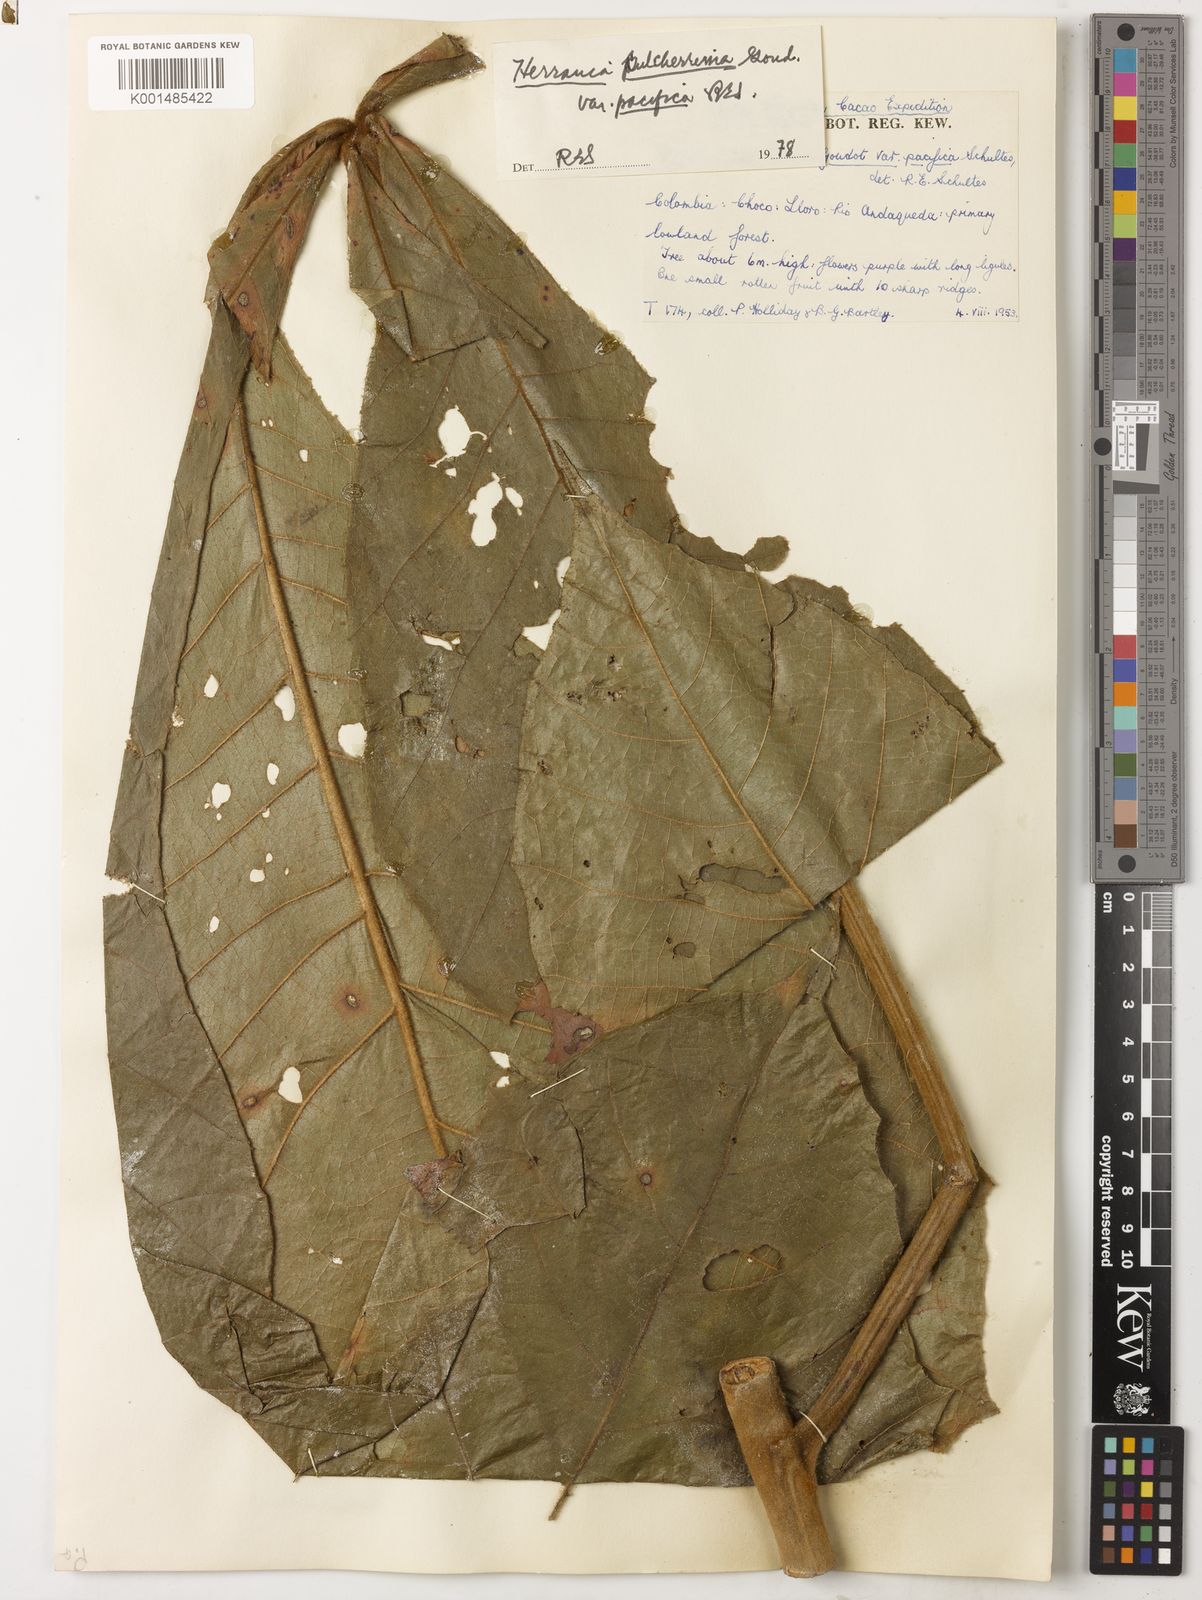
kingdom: Plantae
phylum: Tracheophyta
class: Magnoliopsida
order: Malvales
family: Malvaceae
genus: Herrania
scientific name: Herrania balaensis
